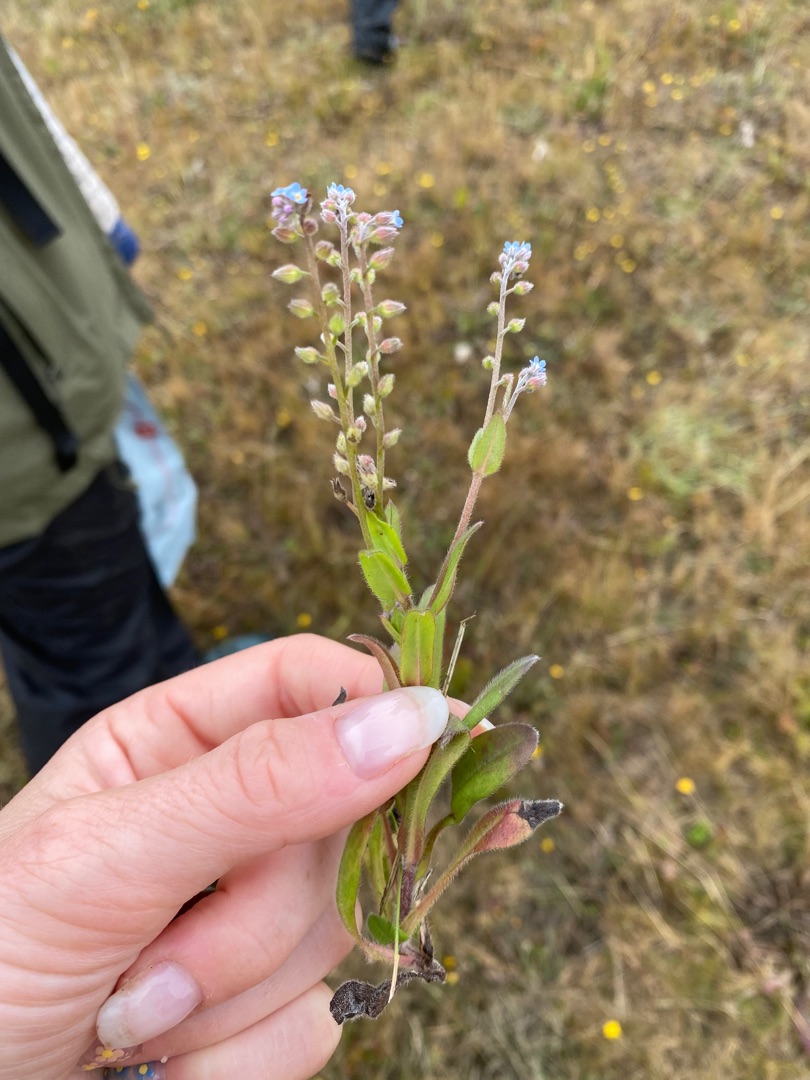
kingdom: Plantae
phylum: Tracheophyta
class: Magnoliopsida
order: Boraginales
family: Boraginaceae
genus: Myosotis
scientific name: Myosotis arvensis
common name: Mark-forglemmigej
